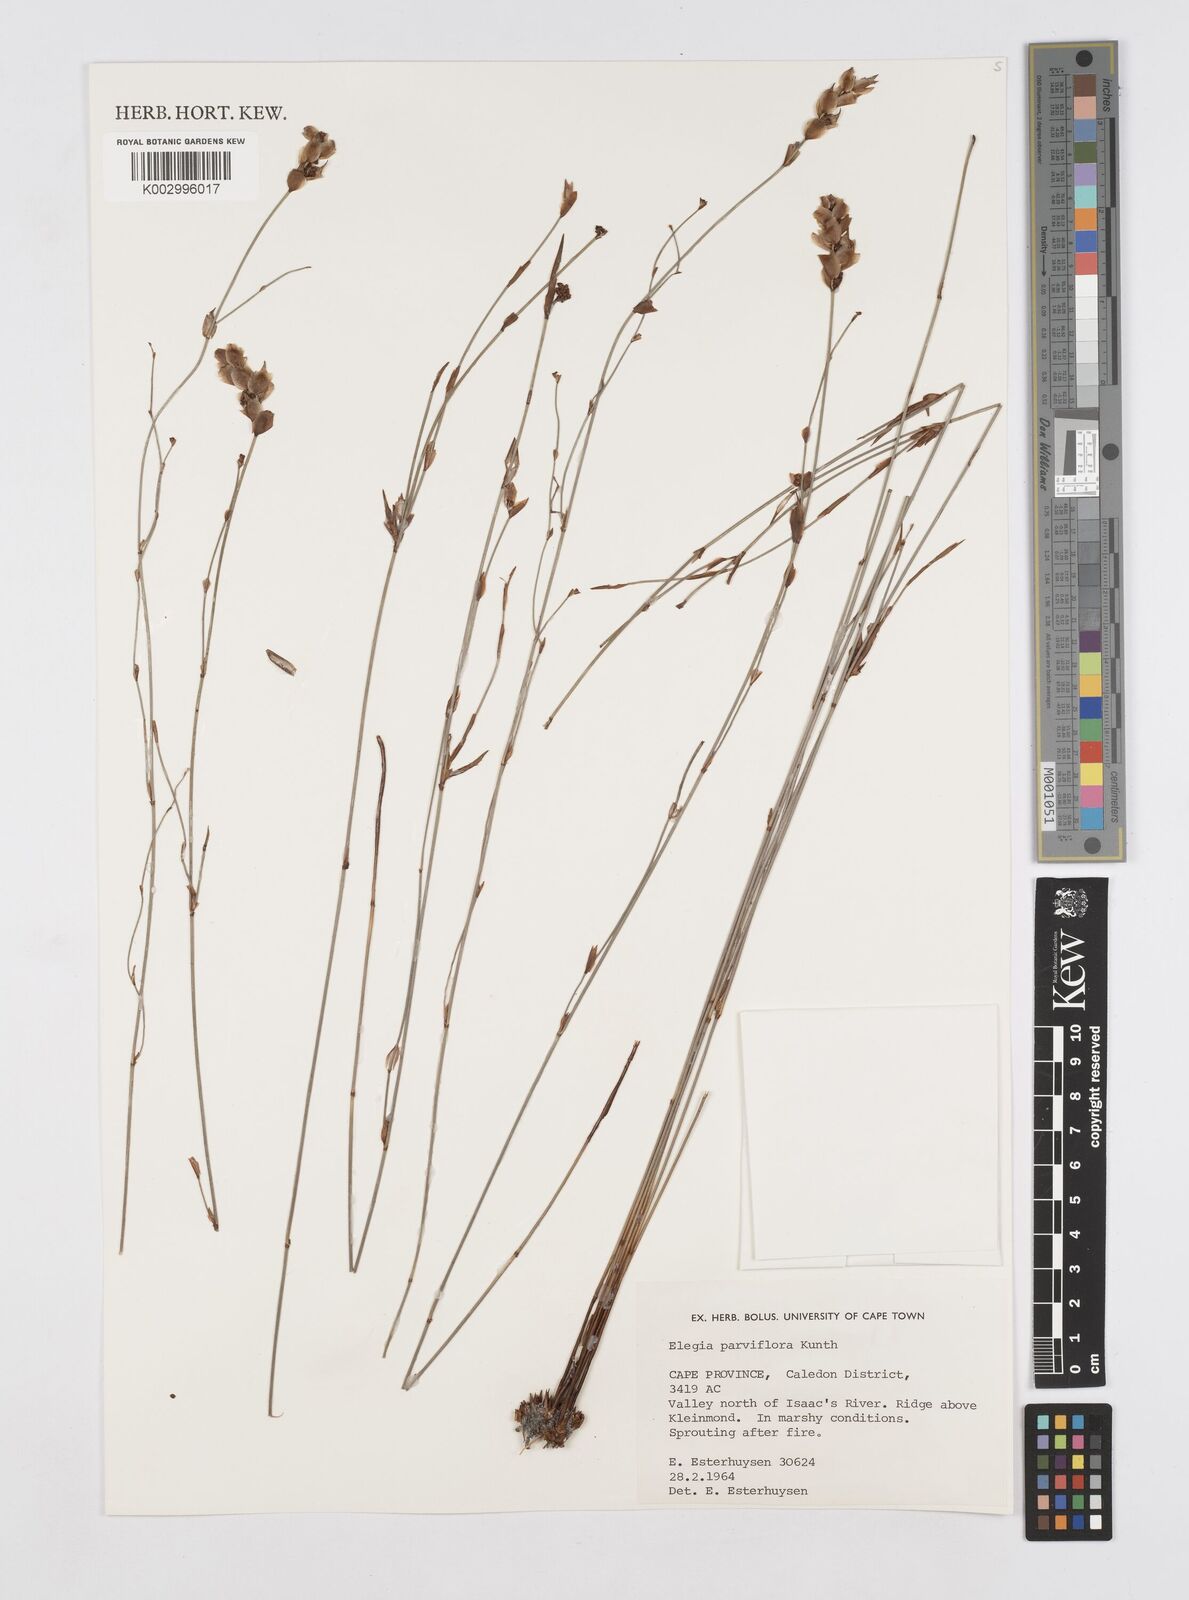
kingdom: Plantae
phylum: Tracheophyta
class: Liliopsida
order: Poales
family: Restionaceae
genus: Cannomois
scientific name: Cannomois parviflora
